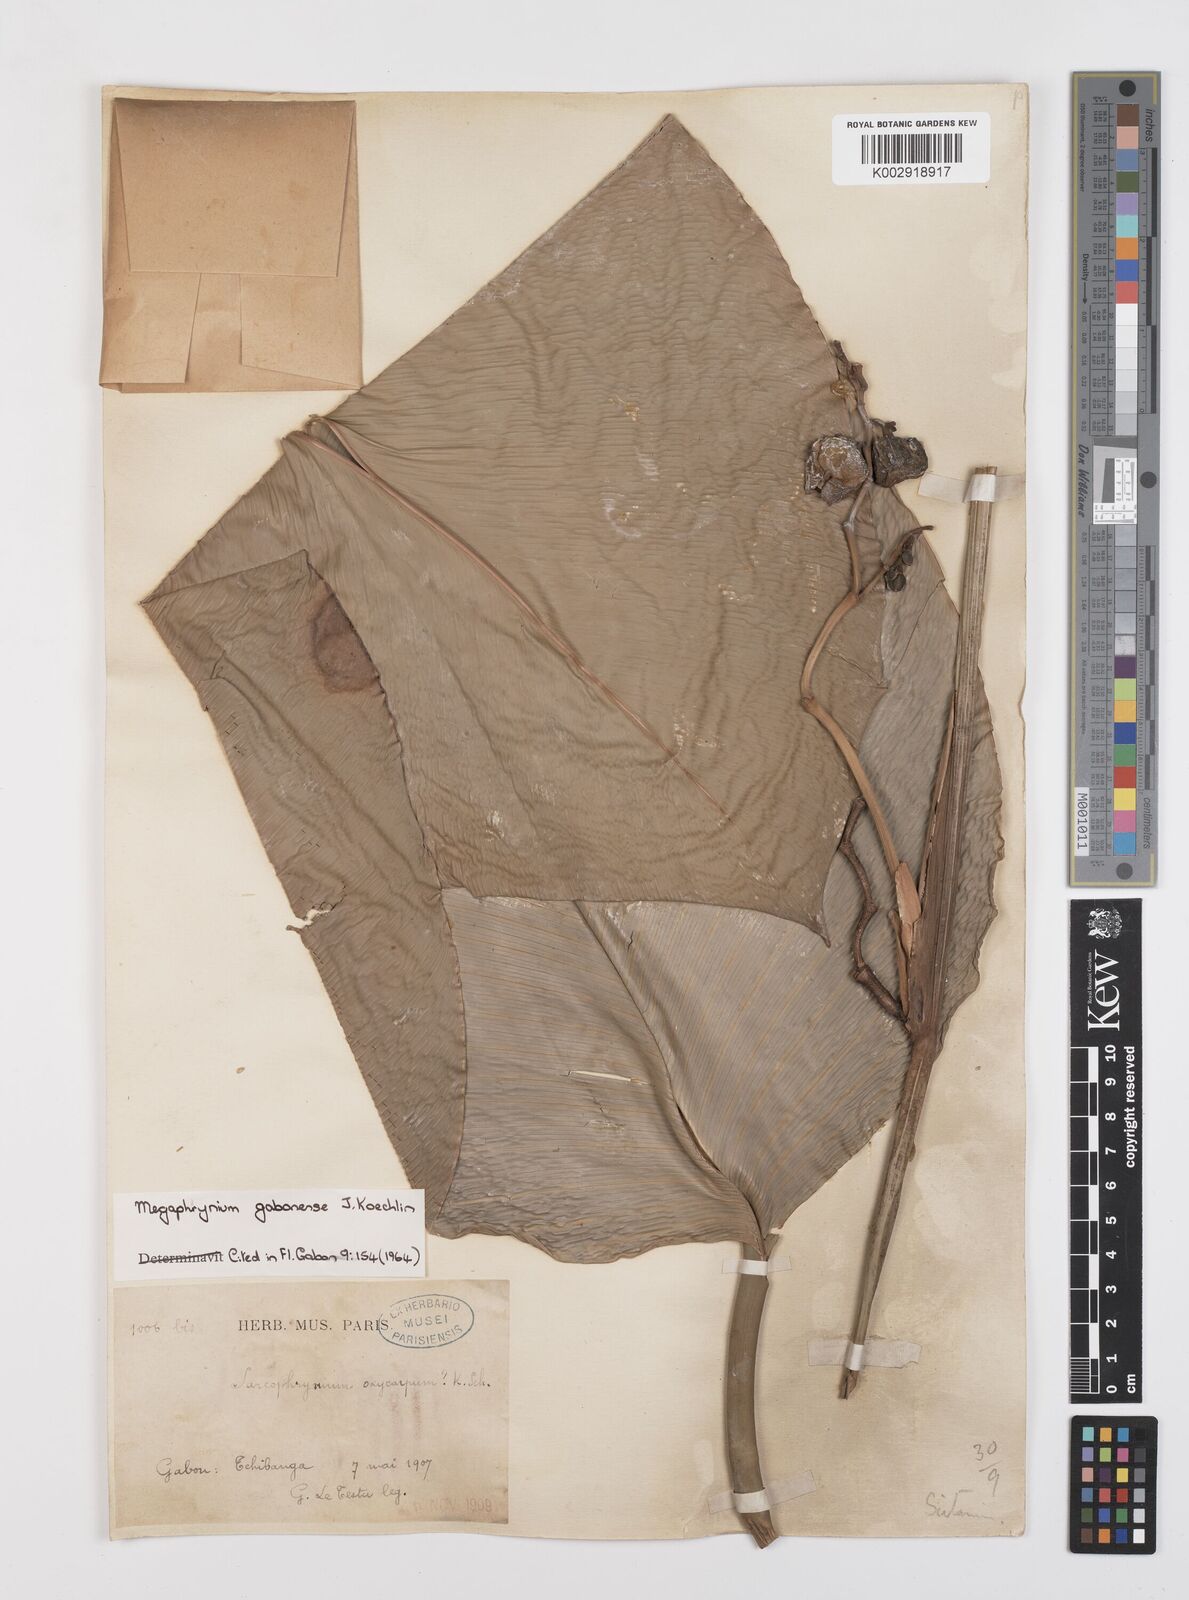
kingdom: Plantae
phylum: Tracheophyta
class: Liliopsida
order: Zingiberales
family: Marantaceae
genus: Megaphrynium
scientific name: Megaphrynium gabonense
